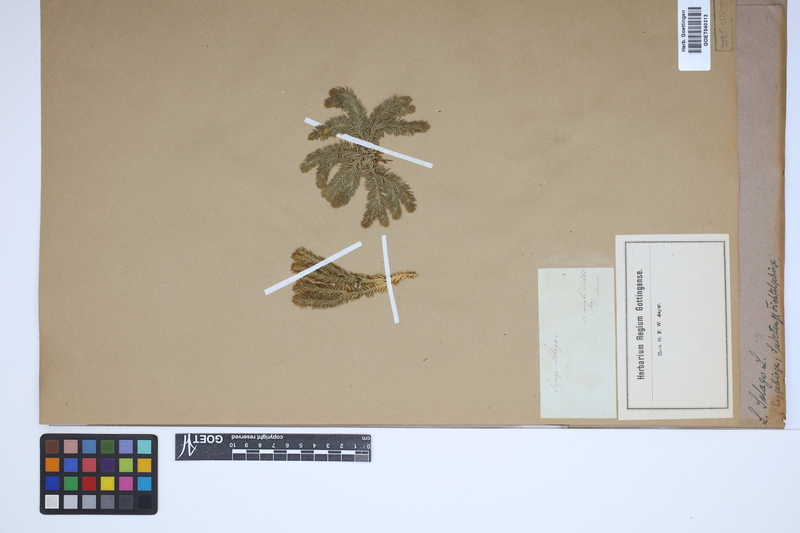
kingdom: Plantae
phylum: Tracheophyta
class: Lycopodiopsida
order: Lycopodiales
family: Lycopodiaceae
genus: Huperzia
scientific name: Huperzia selago
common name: Northern firmoss
